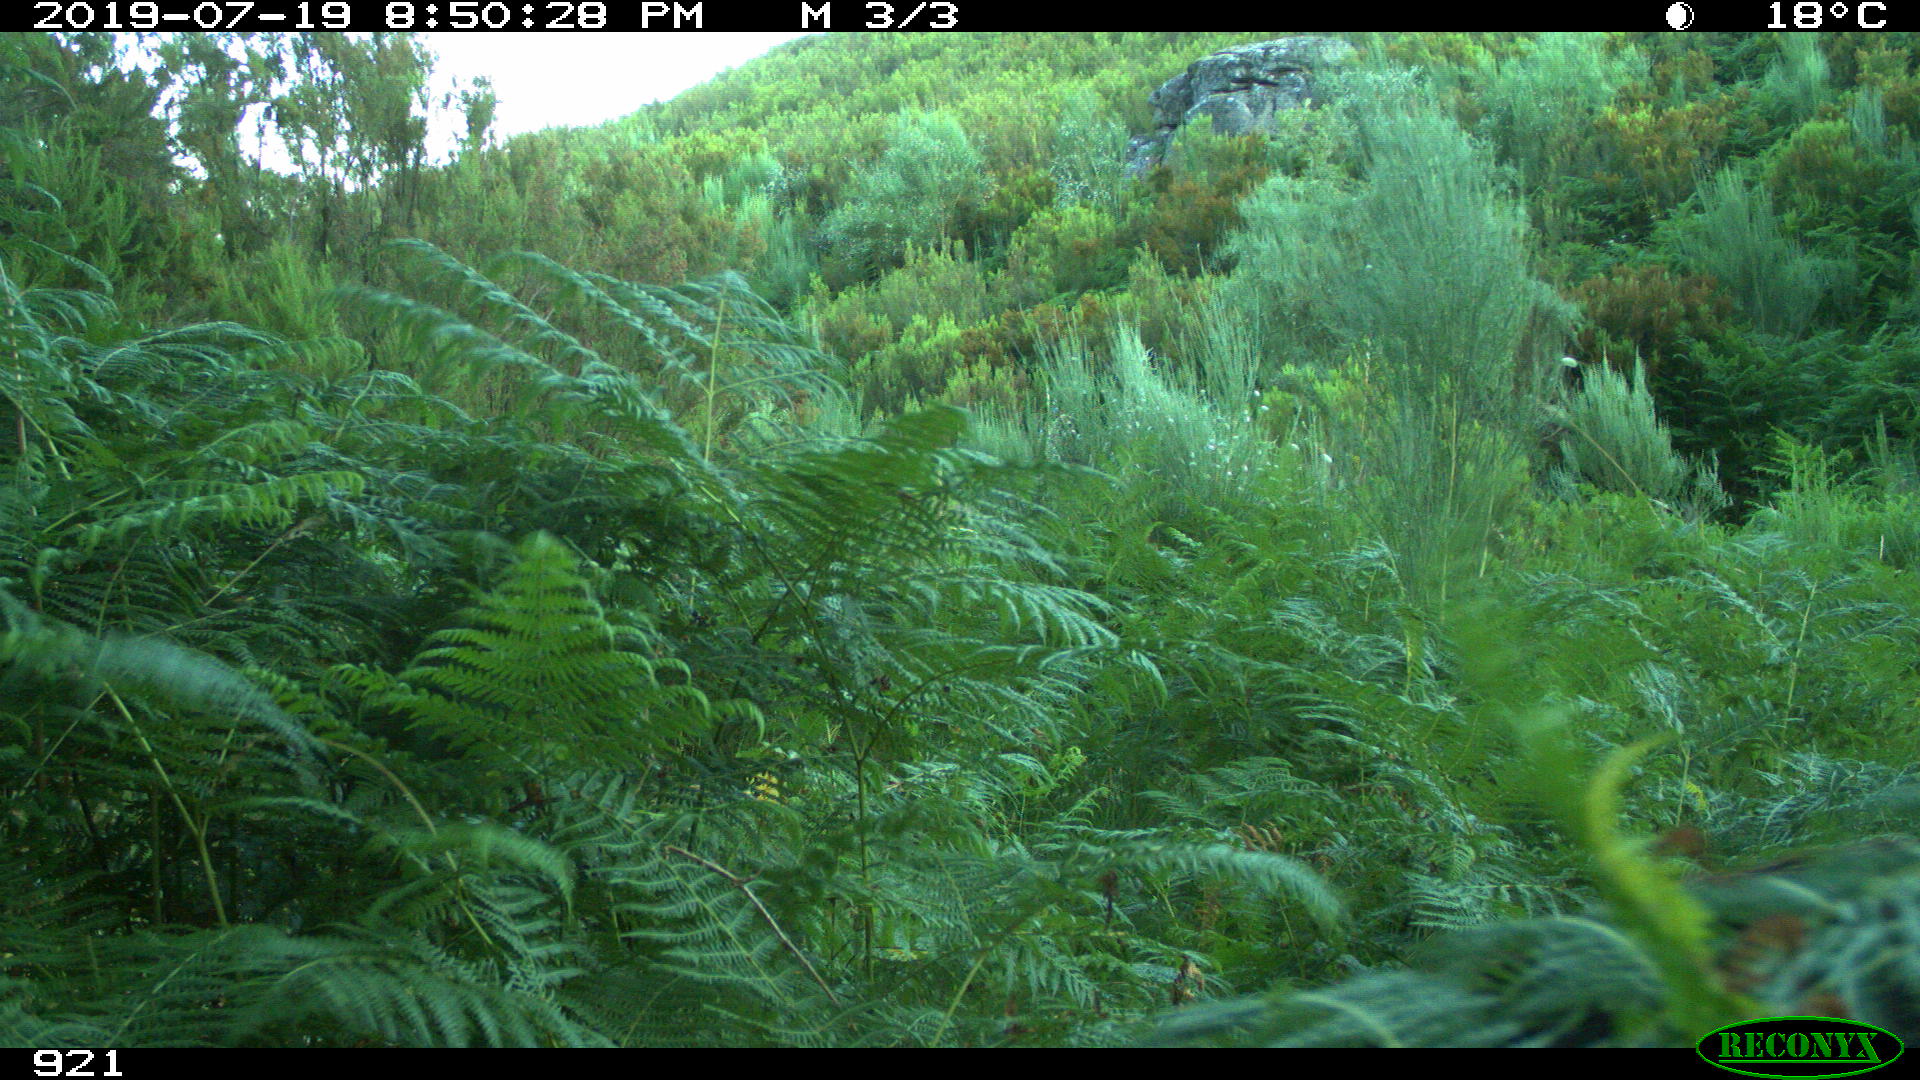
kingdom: Animalia
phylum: Chordata
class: Mammalia
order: Artiodactyla
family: Suidae
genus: Sus
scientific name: Sus scrofa
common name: Wild boar
